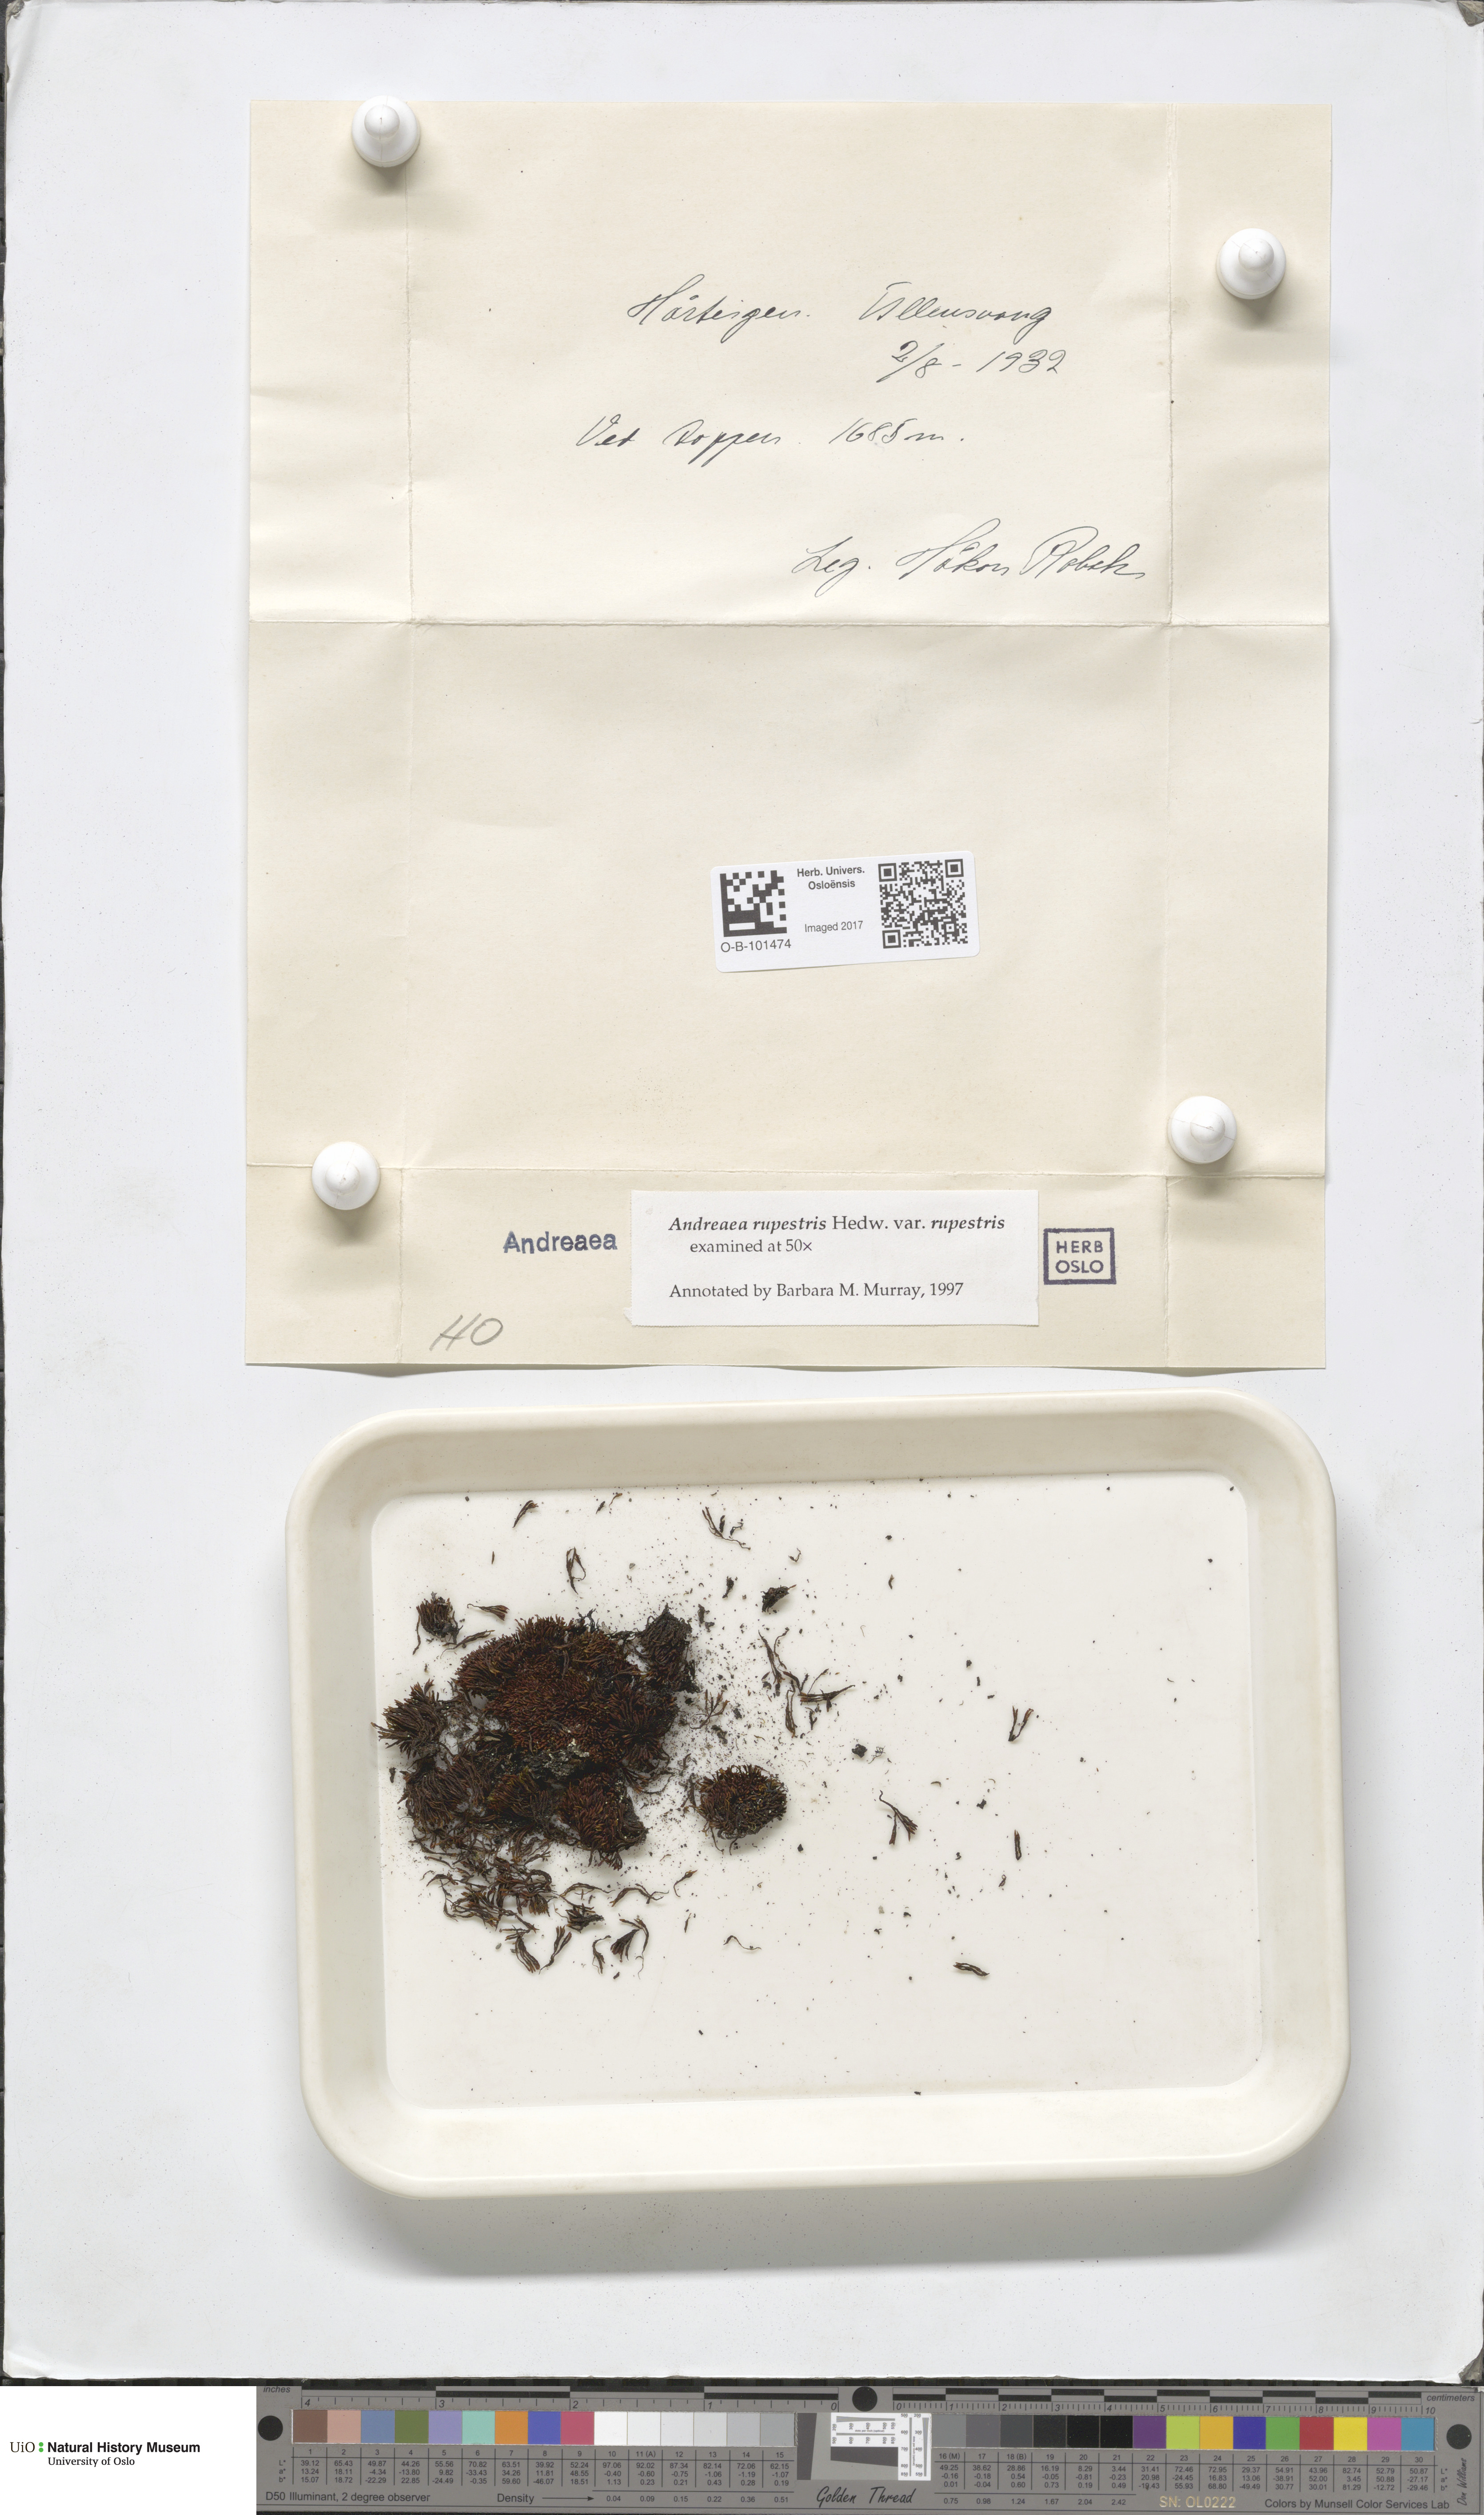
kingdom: Plantae
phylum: Bryophyta
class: Andreaeopsida
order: Andreaeales
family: Andreaeaceae
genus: Andreaea
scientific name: Andreaea rupestris
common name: Black rock moss
